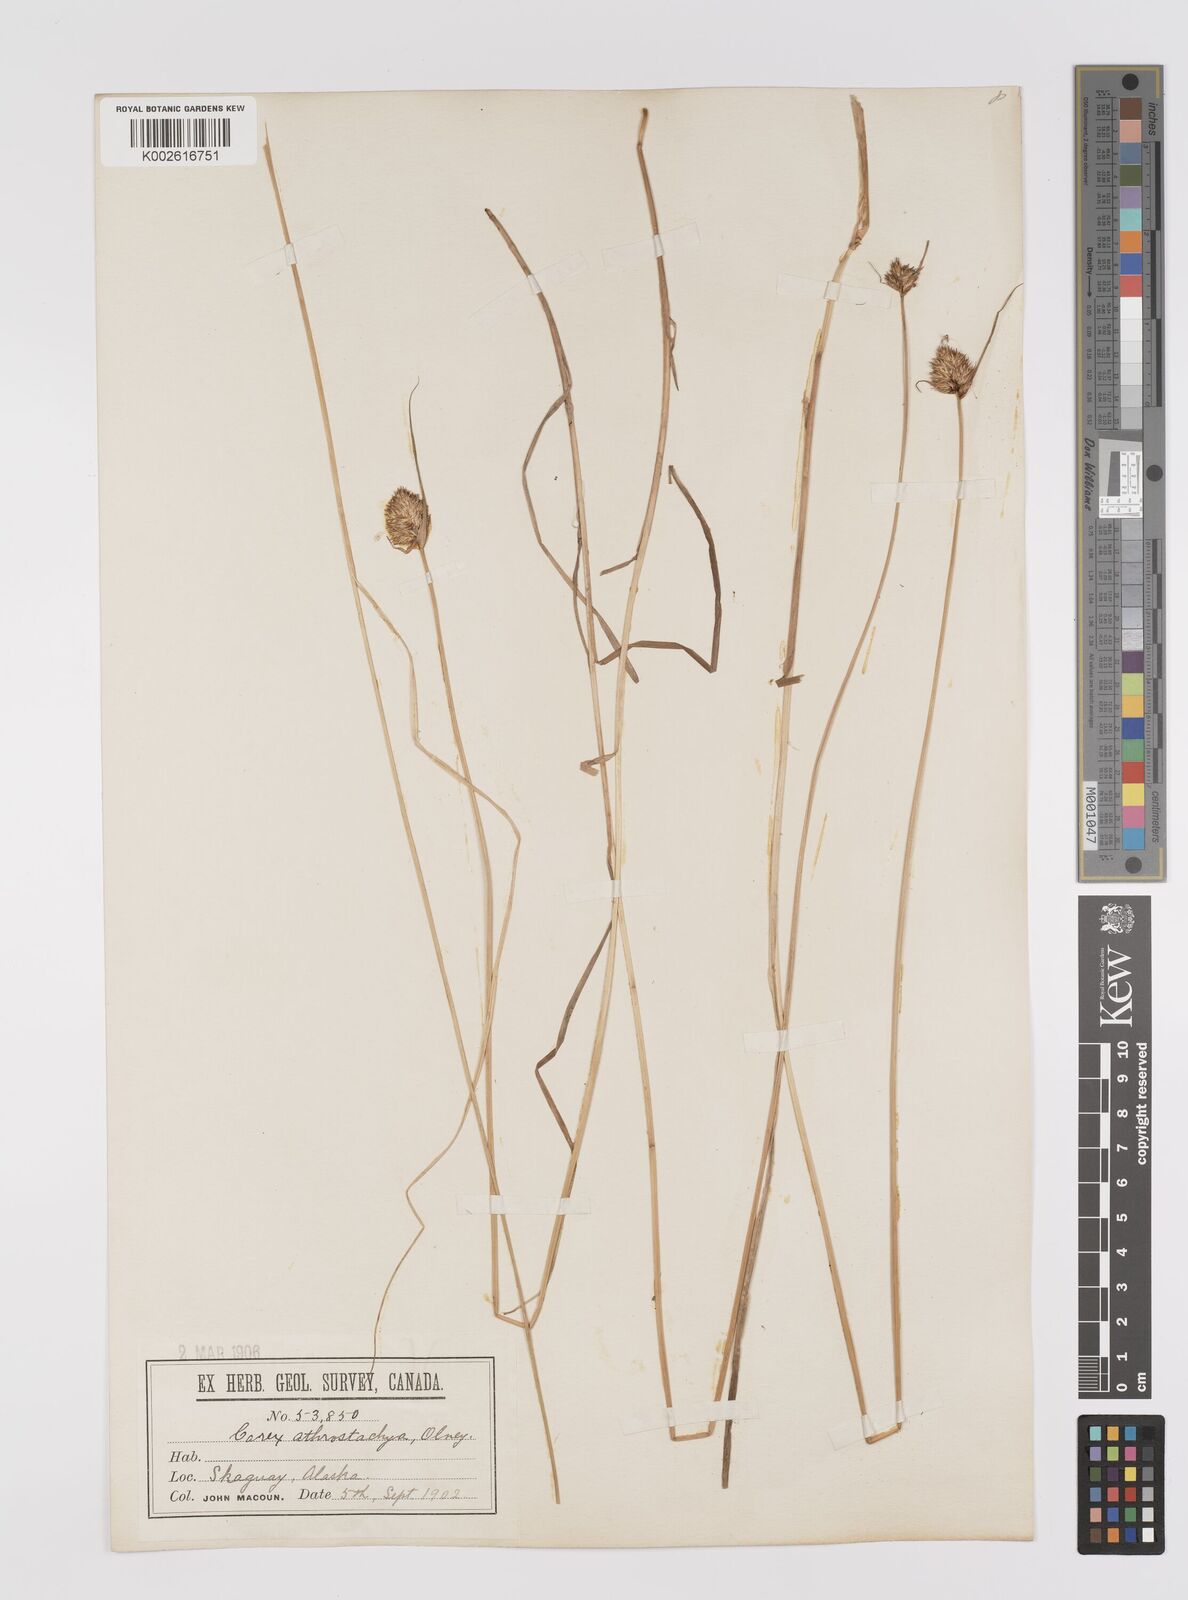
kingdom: Plantae
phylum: Tracheophyta
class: Liliopsida
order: Poales
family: Cyperaceae
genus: Carex
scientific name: Carex athrostachya
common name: Slenderbeak sedge
